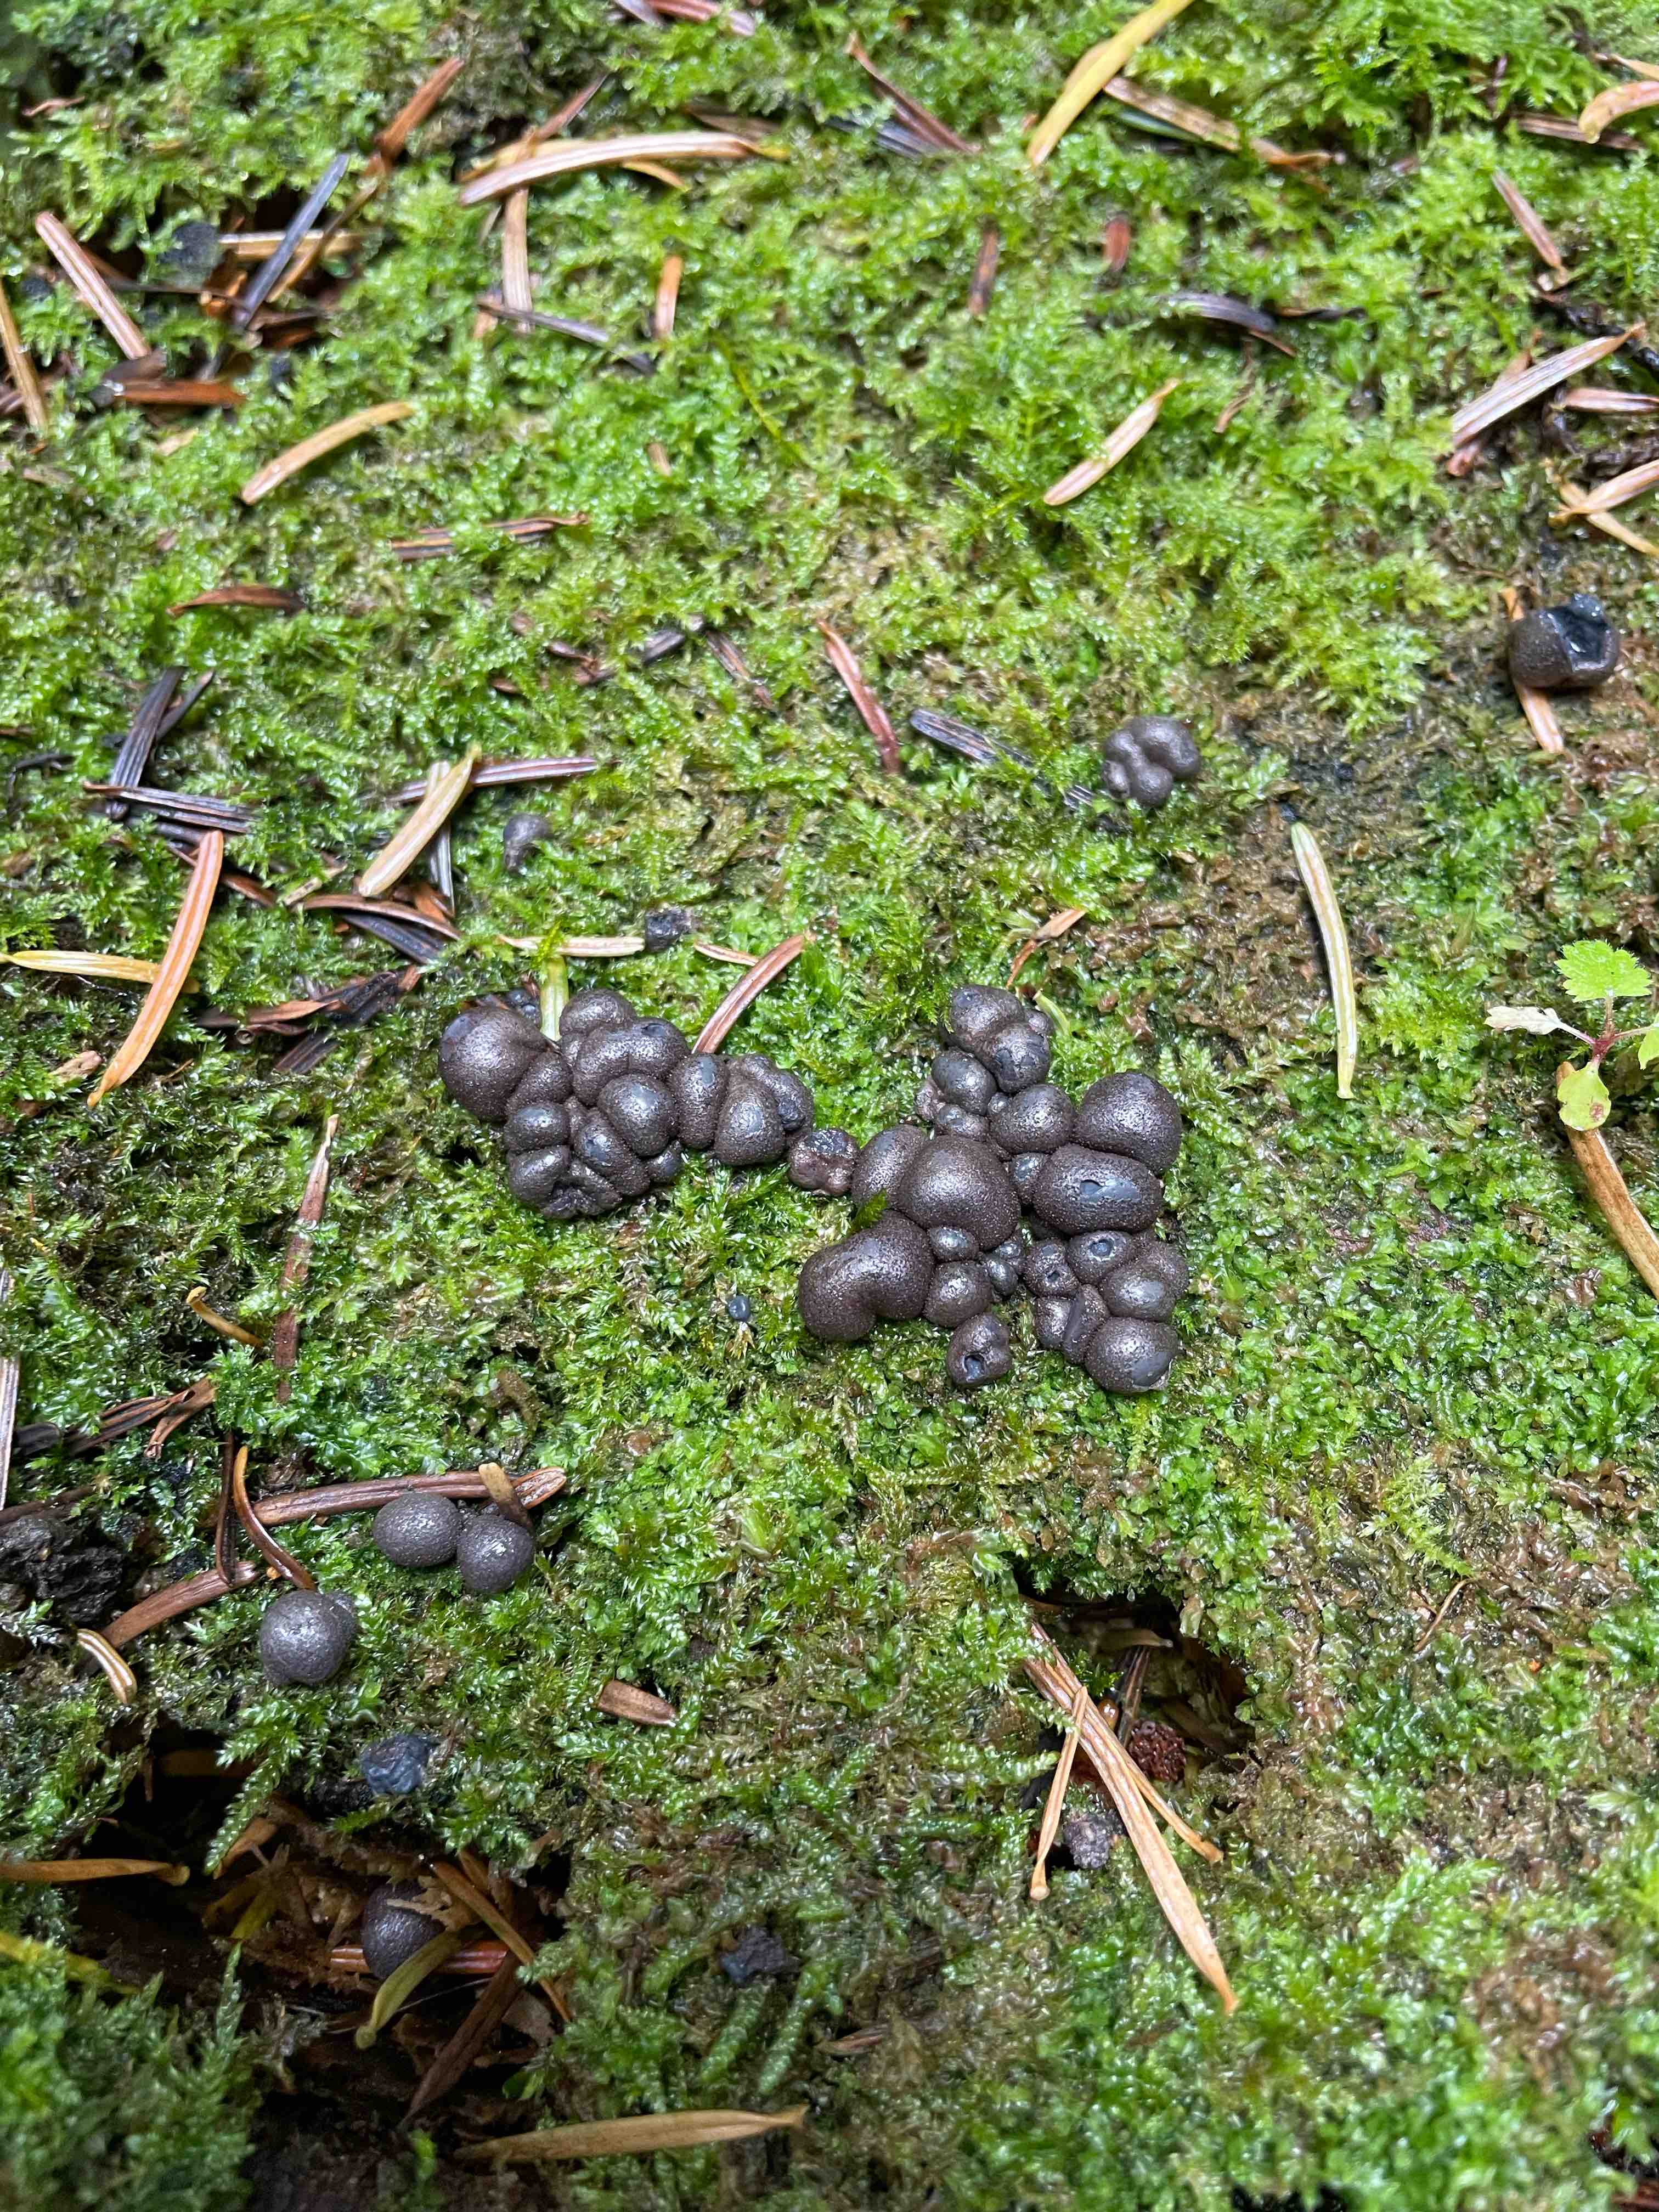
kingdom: Protozoa
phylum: Mycetozoa
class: Myxomycetes
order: Cribrariales
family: Tubiferaceae
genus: Lycogala
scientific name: Lycogala epidendrum
